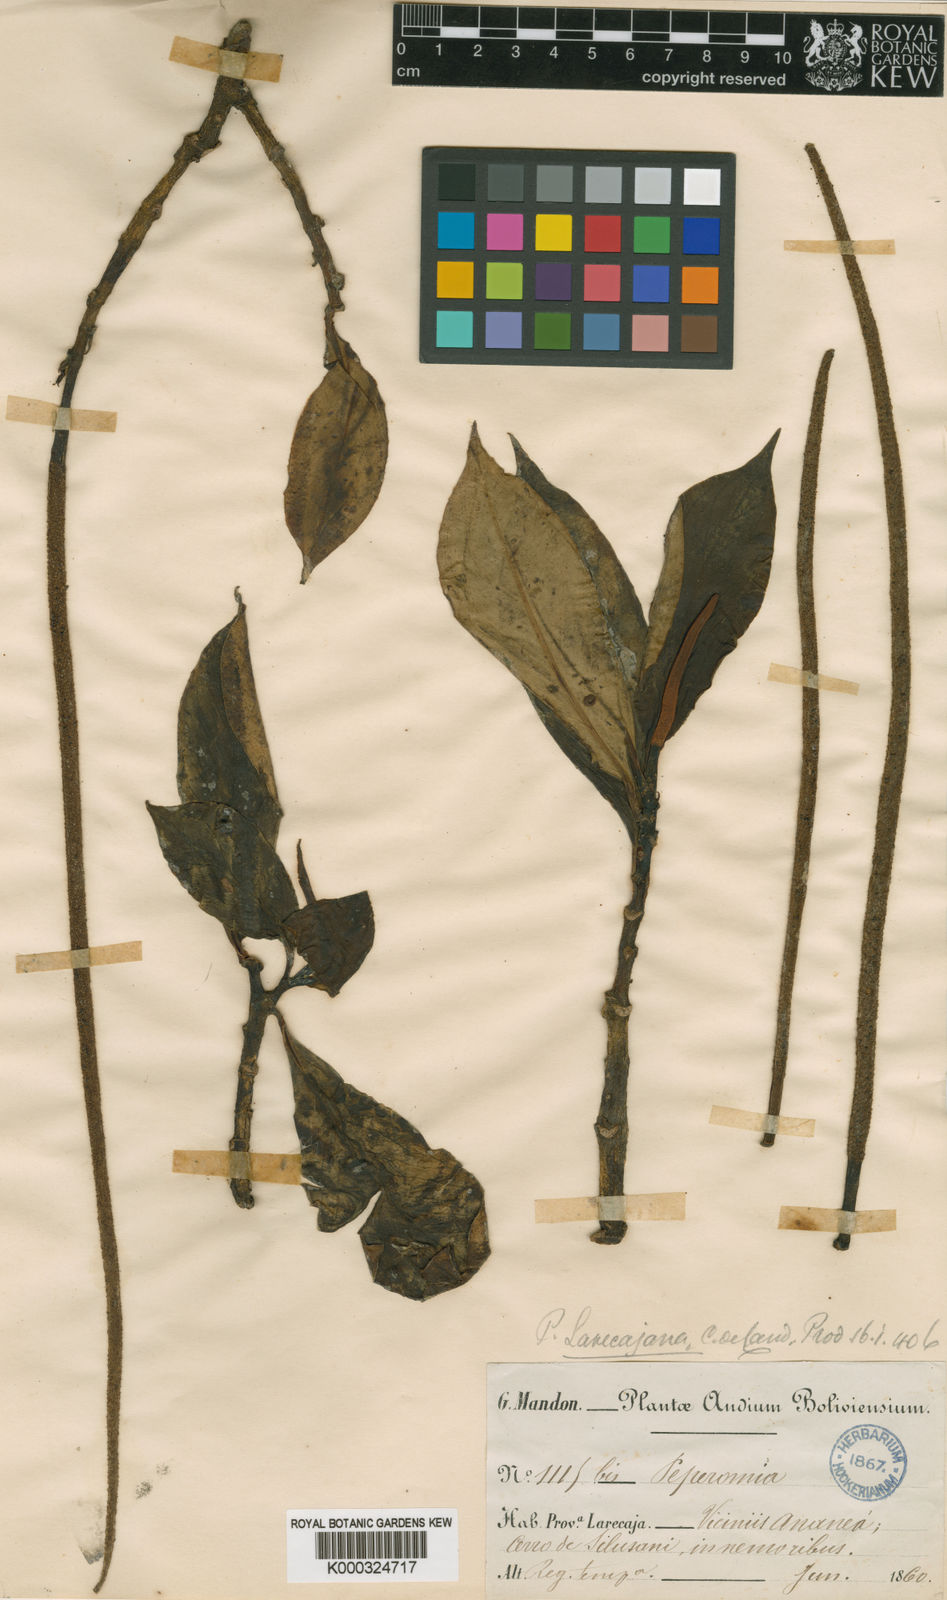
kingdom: Plantae
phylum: Tracheophyta
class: Magnoliopsida
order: Piperales
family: Piperaceae
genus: Peperomia
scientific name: Peperomia acuminata
